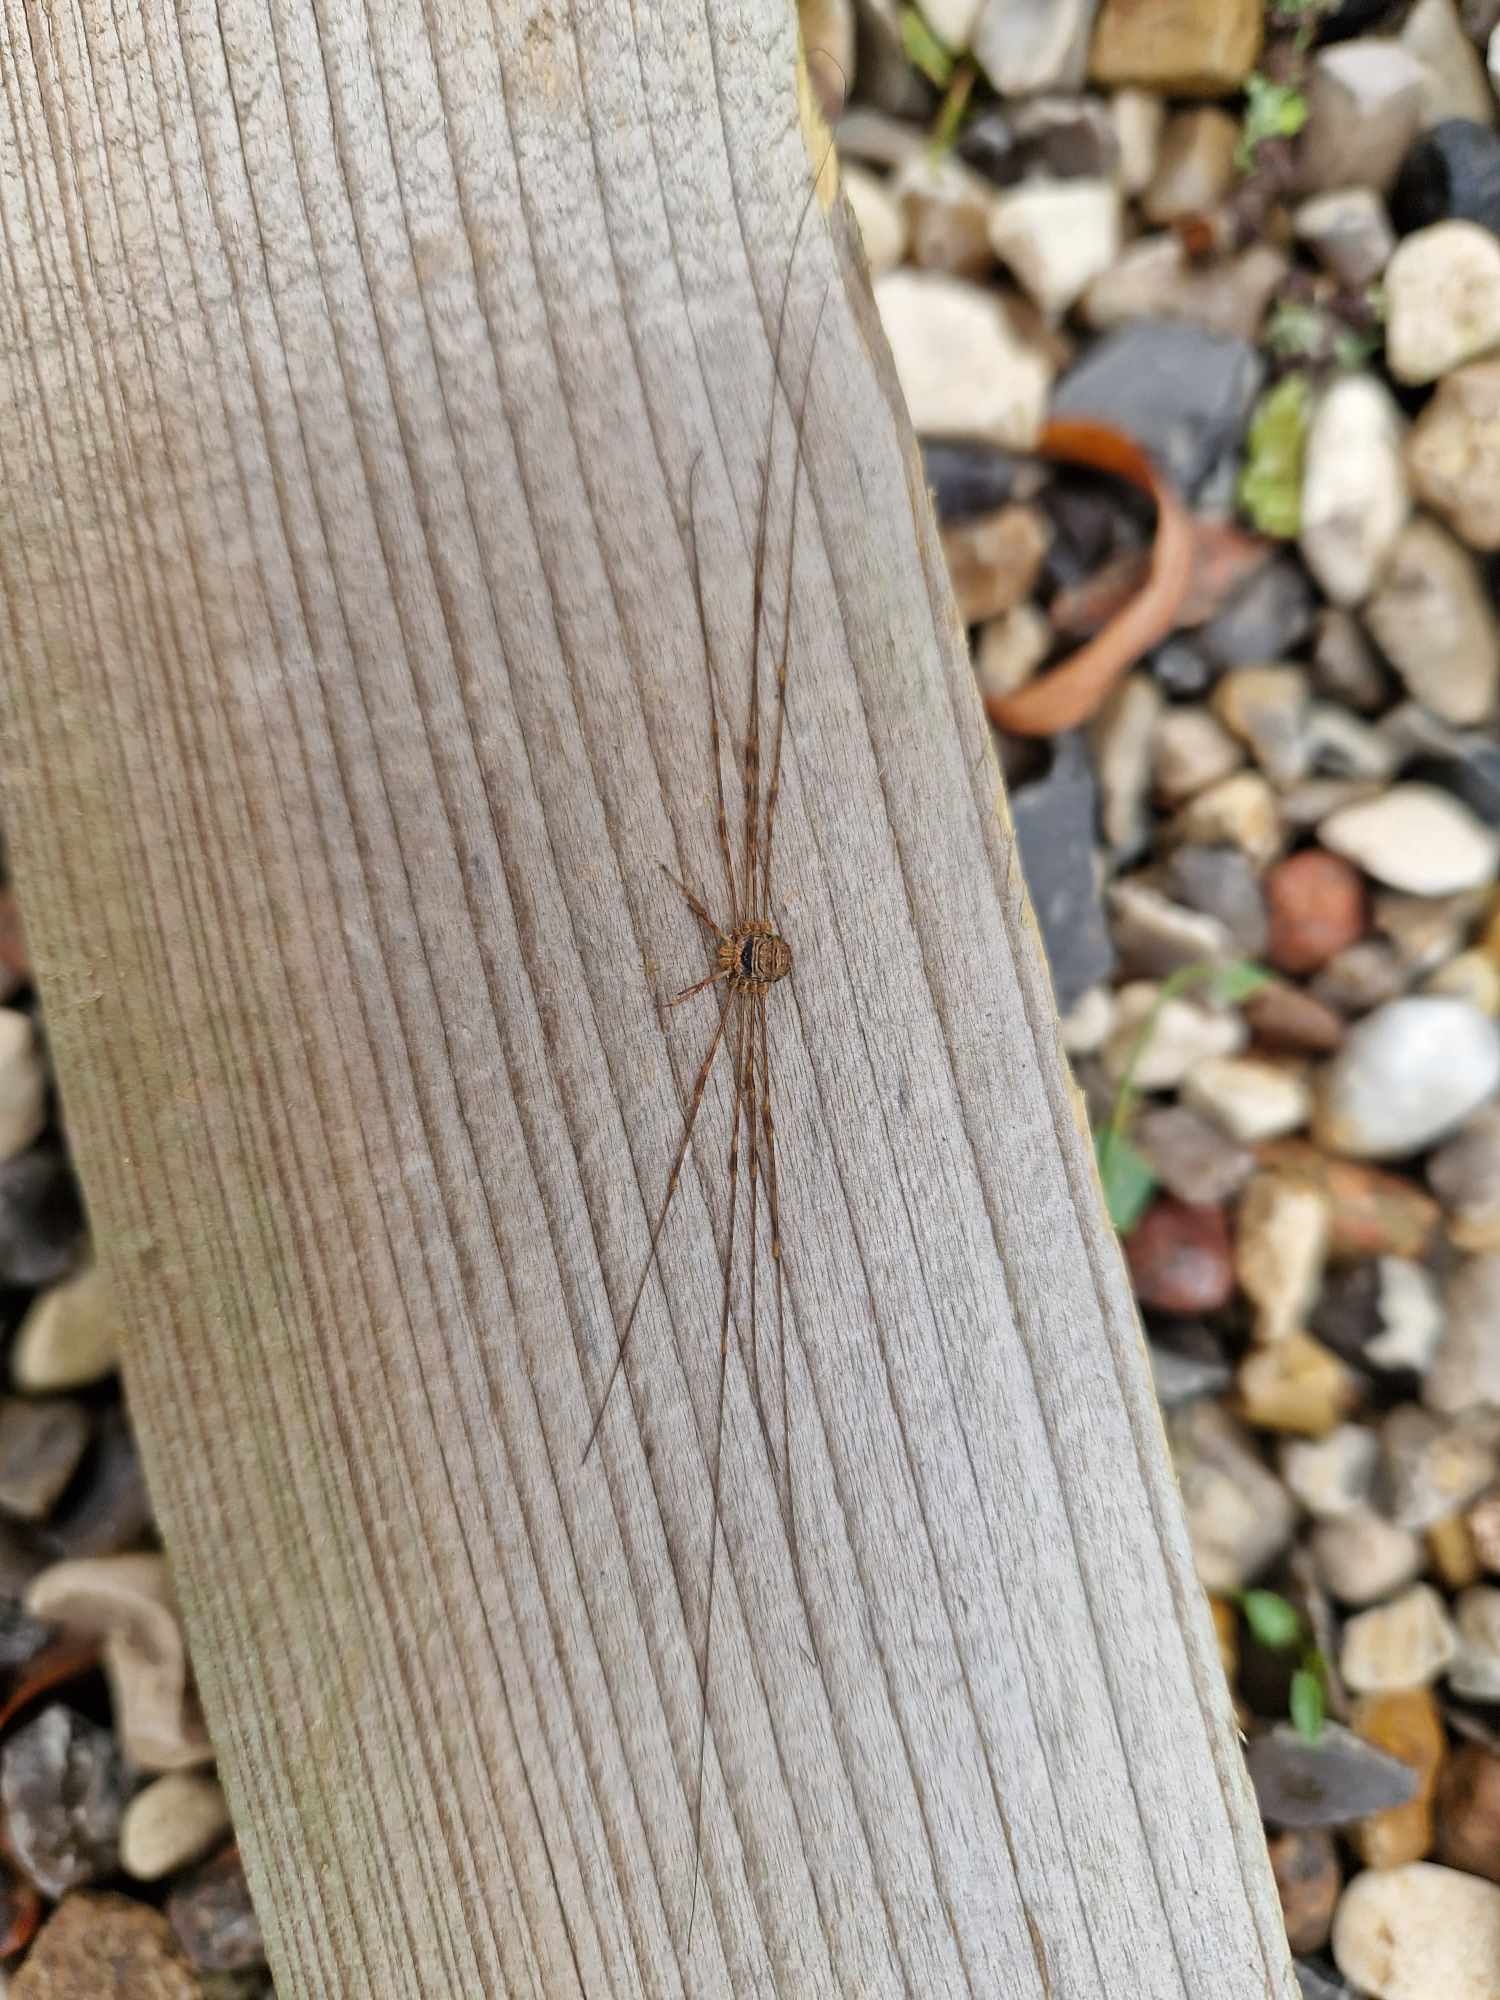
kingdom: Animalia
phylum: Arthropoda
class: Arachnida
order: Opiliones
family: Phalangiidae
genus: Dicranopalpus
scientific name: Dicranopalpus ramosus
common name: Gaffelmejer
